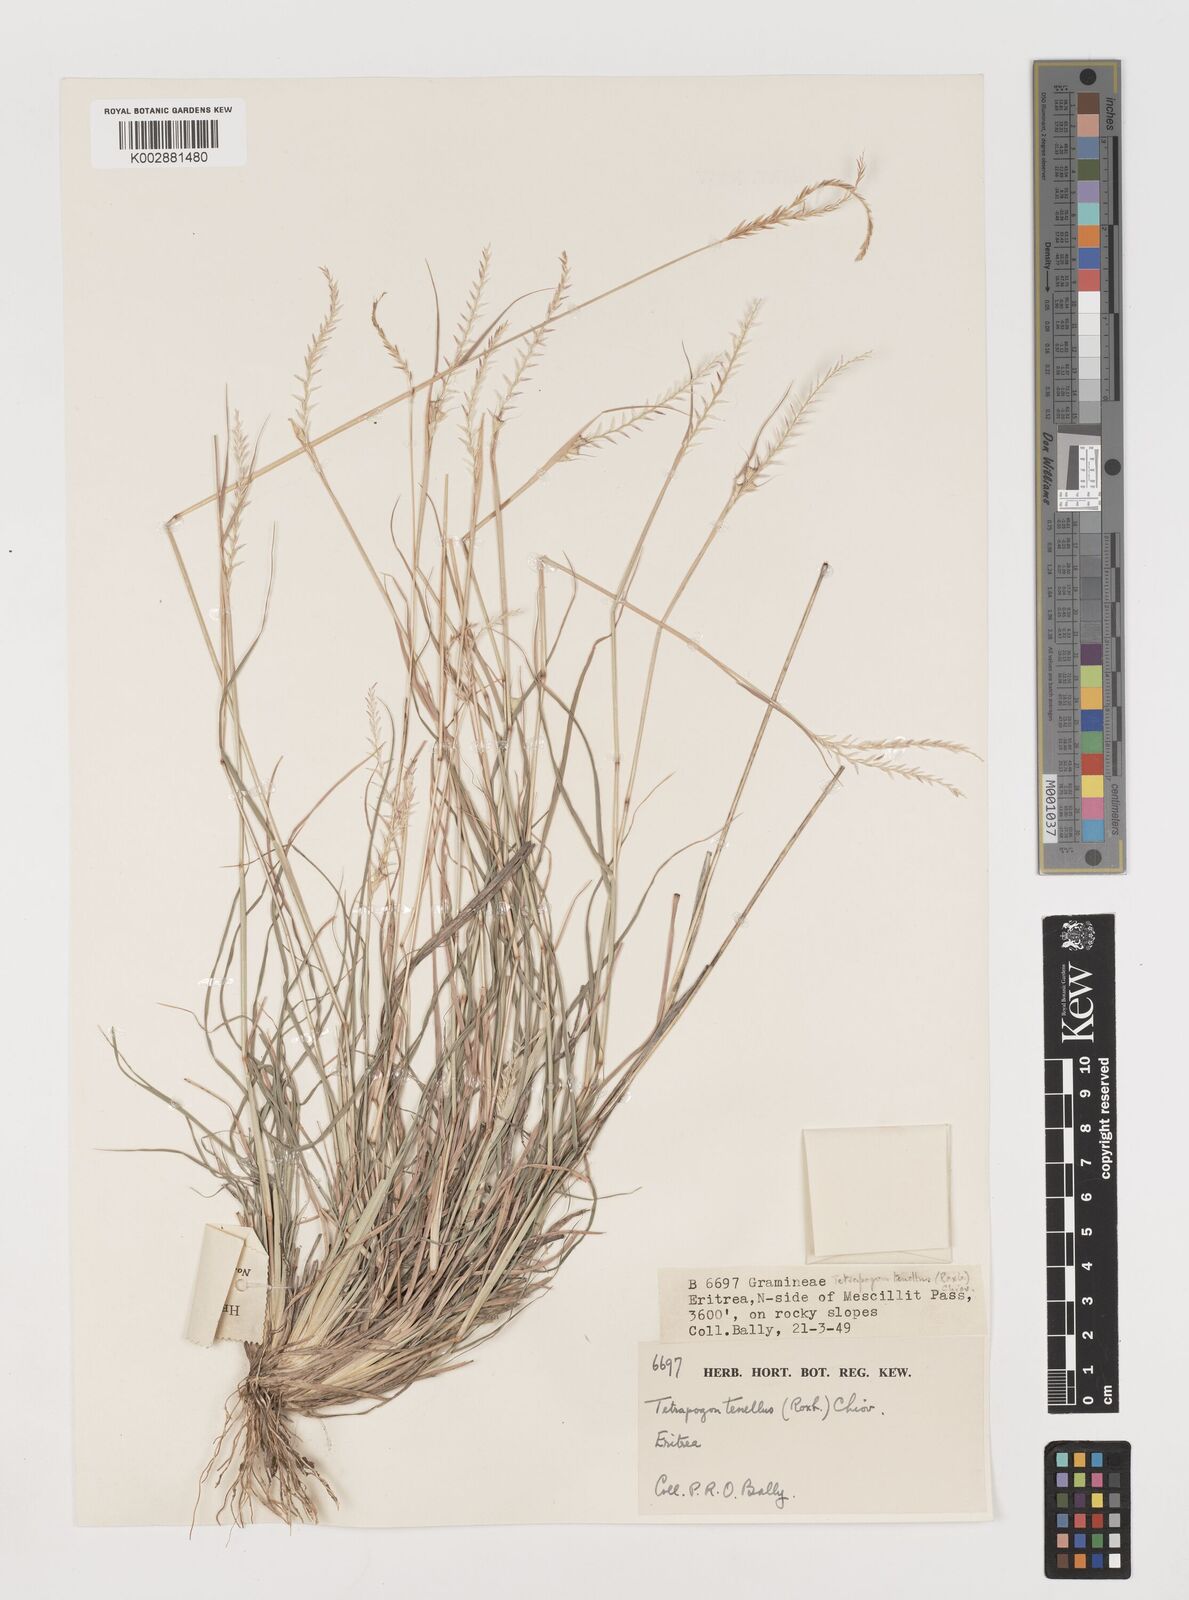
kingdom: Plantae
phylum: Tracheophyta
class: Liliopsida
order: Poales
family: Poaceae
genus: Tetrapogon
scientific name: Tetrapogon tenellus
